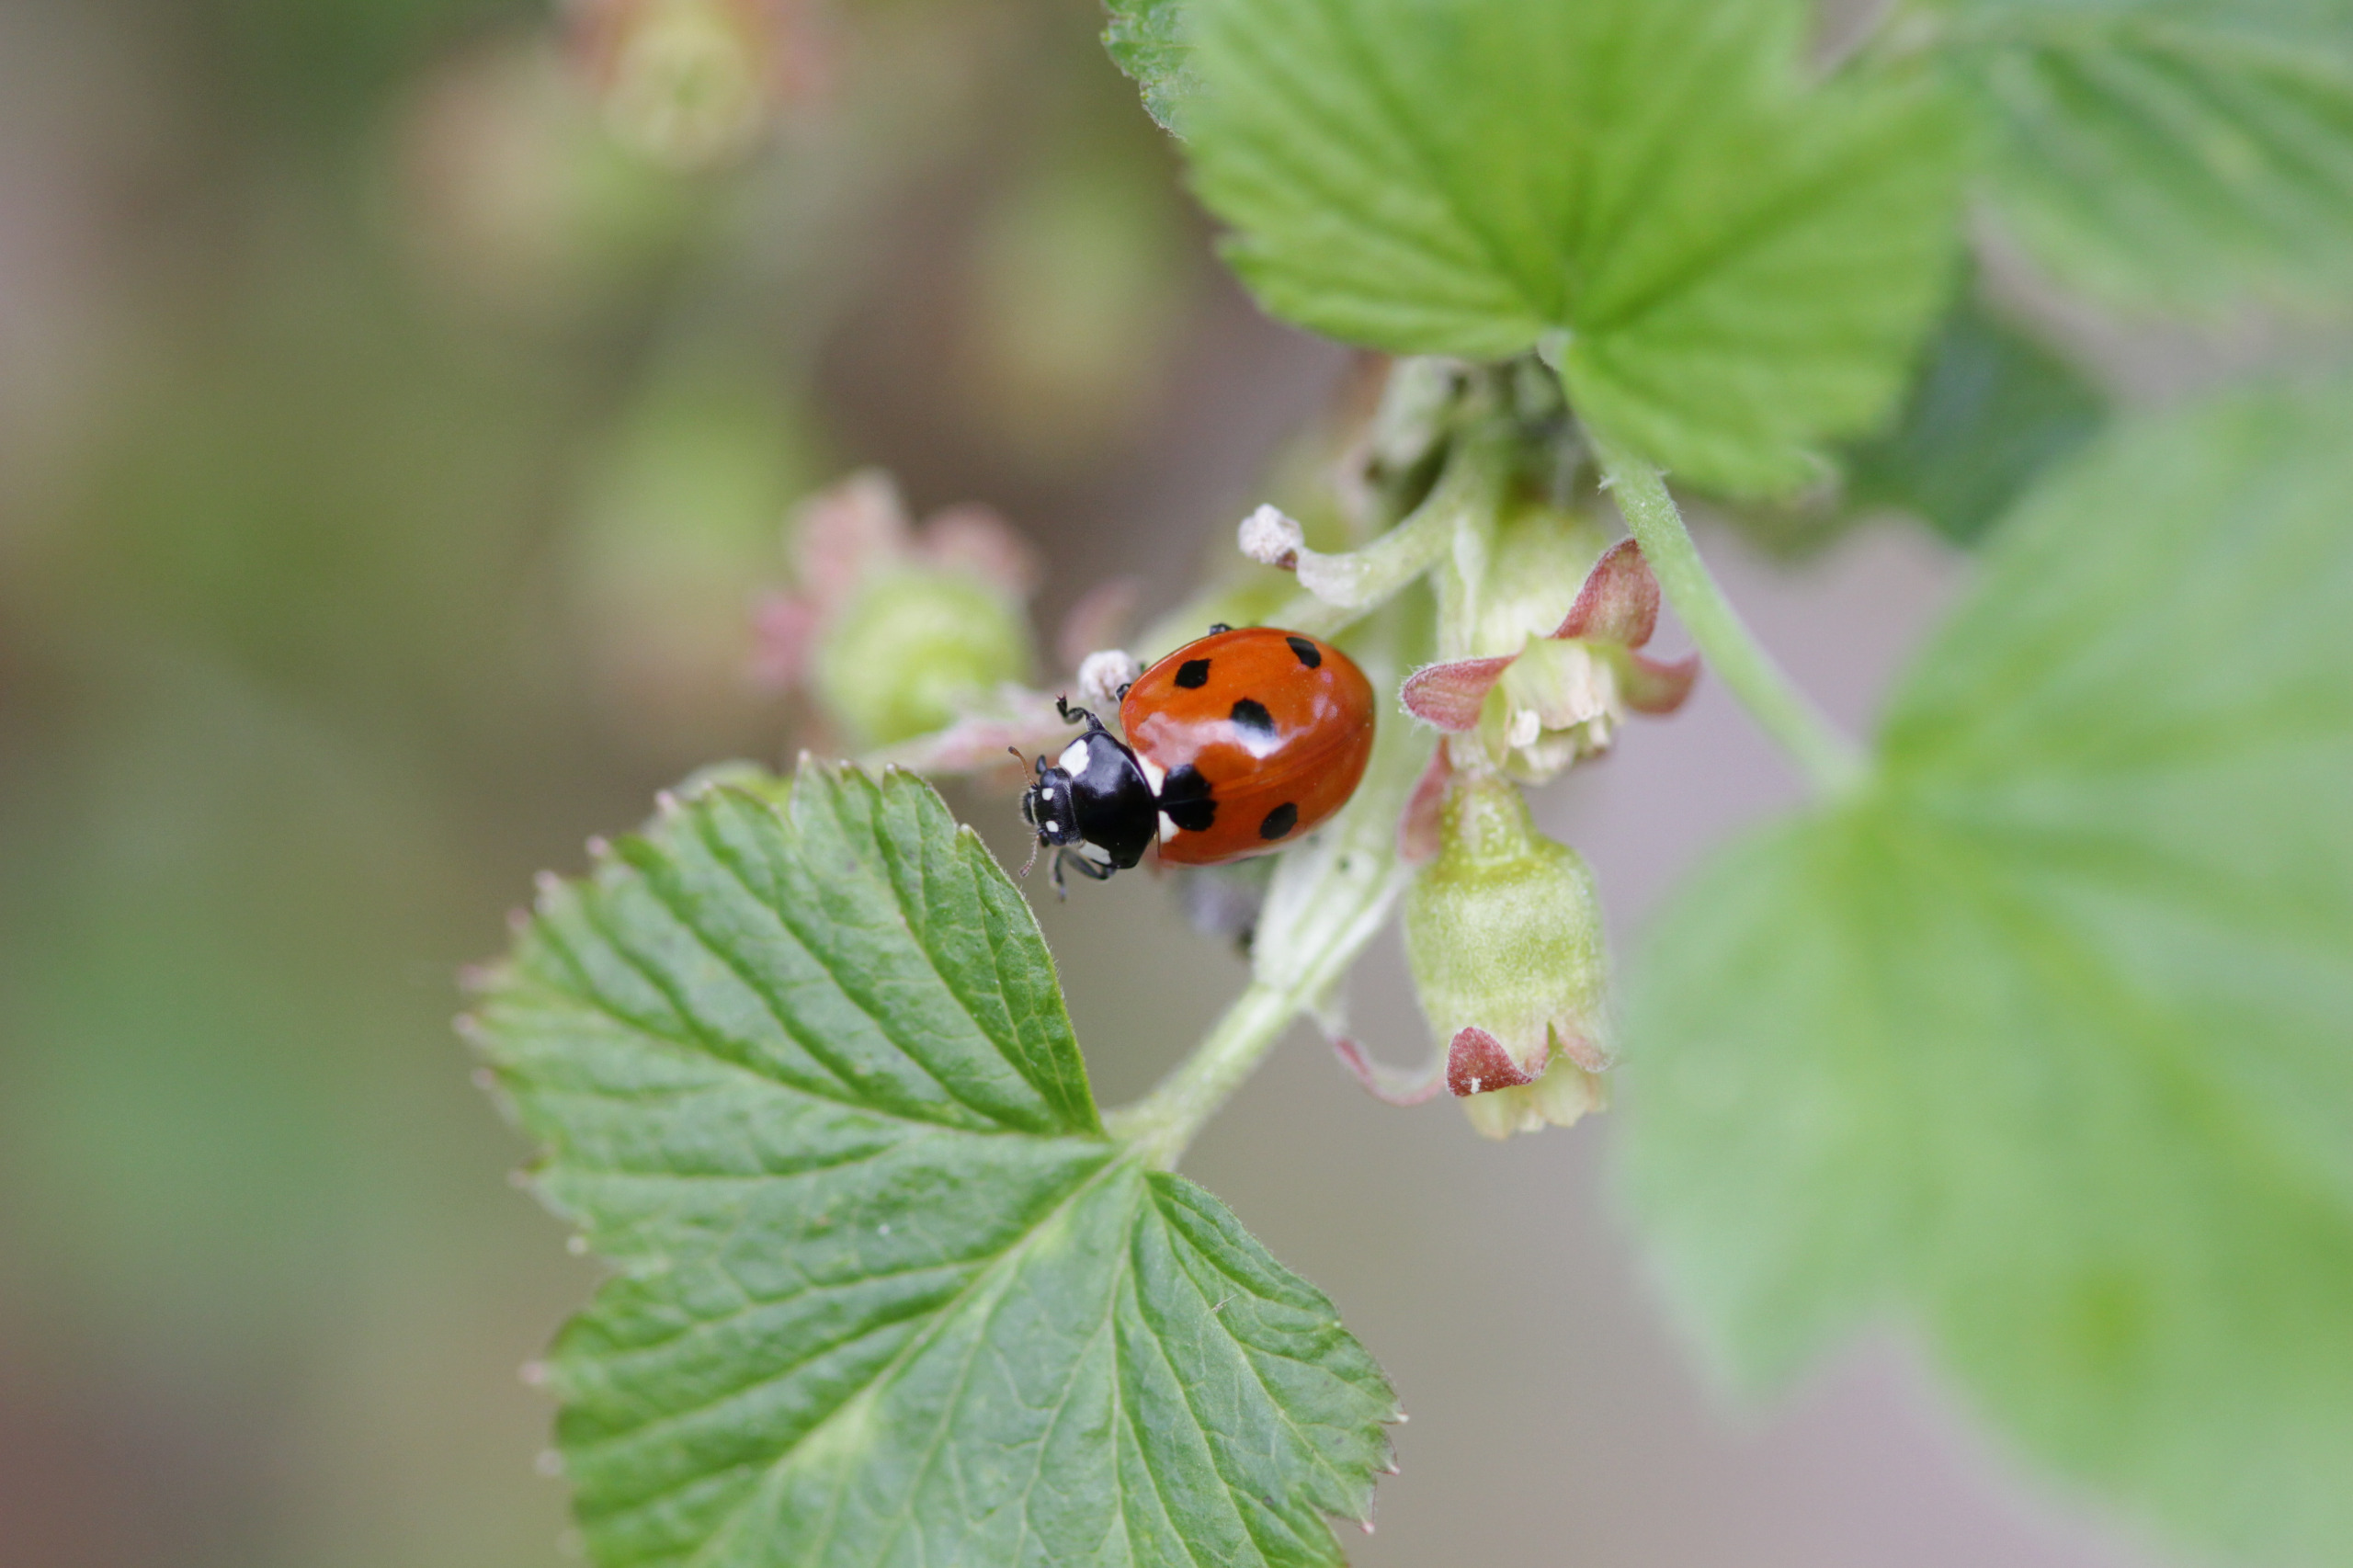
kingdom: Animalia
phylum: Arthropoda
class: Insecta
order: Coleoptera
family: Coccinellidae
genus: Coccinella
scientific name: Coccinella septempunctata
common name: Syvplettet mariehøne
